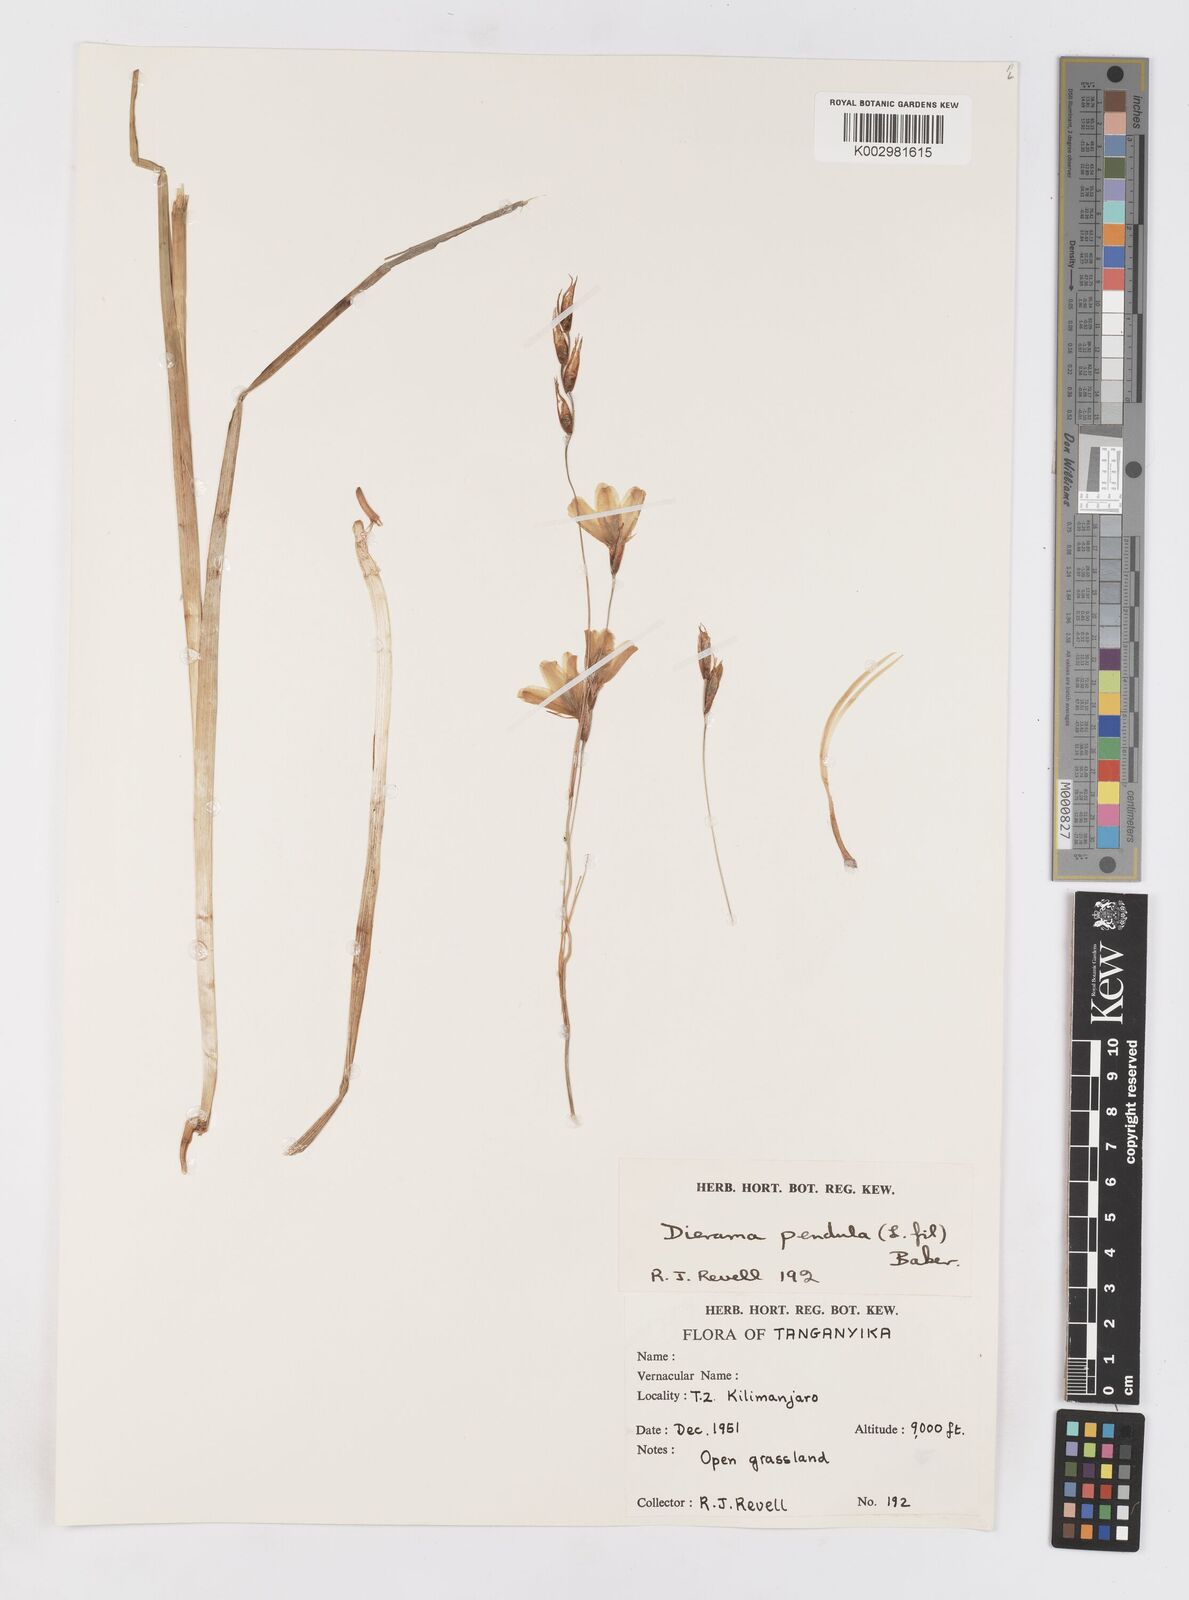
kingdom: Plantae
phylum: Tracheophyta
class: Liliopsida
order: Asparagales
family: Iridaceae
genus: Dierama
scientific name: Dierama cupuliflorum
